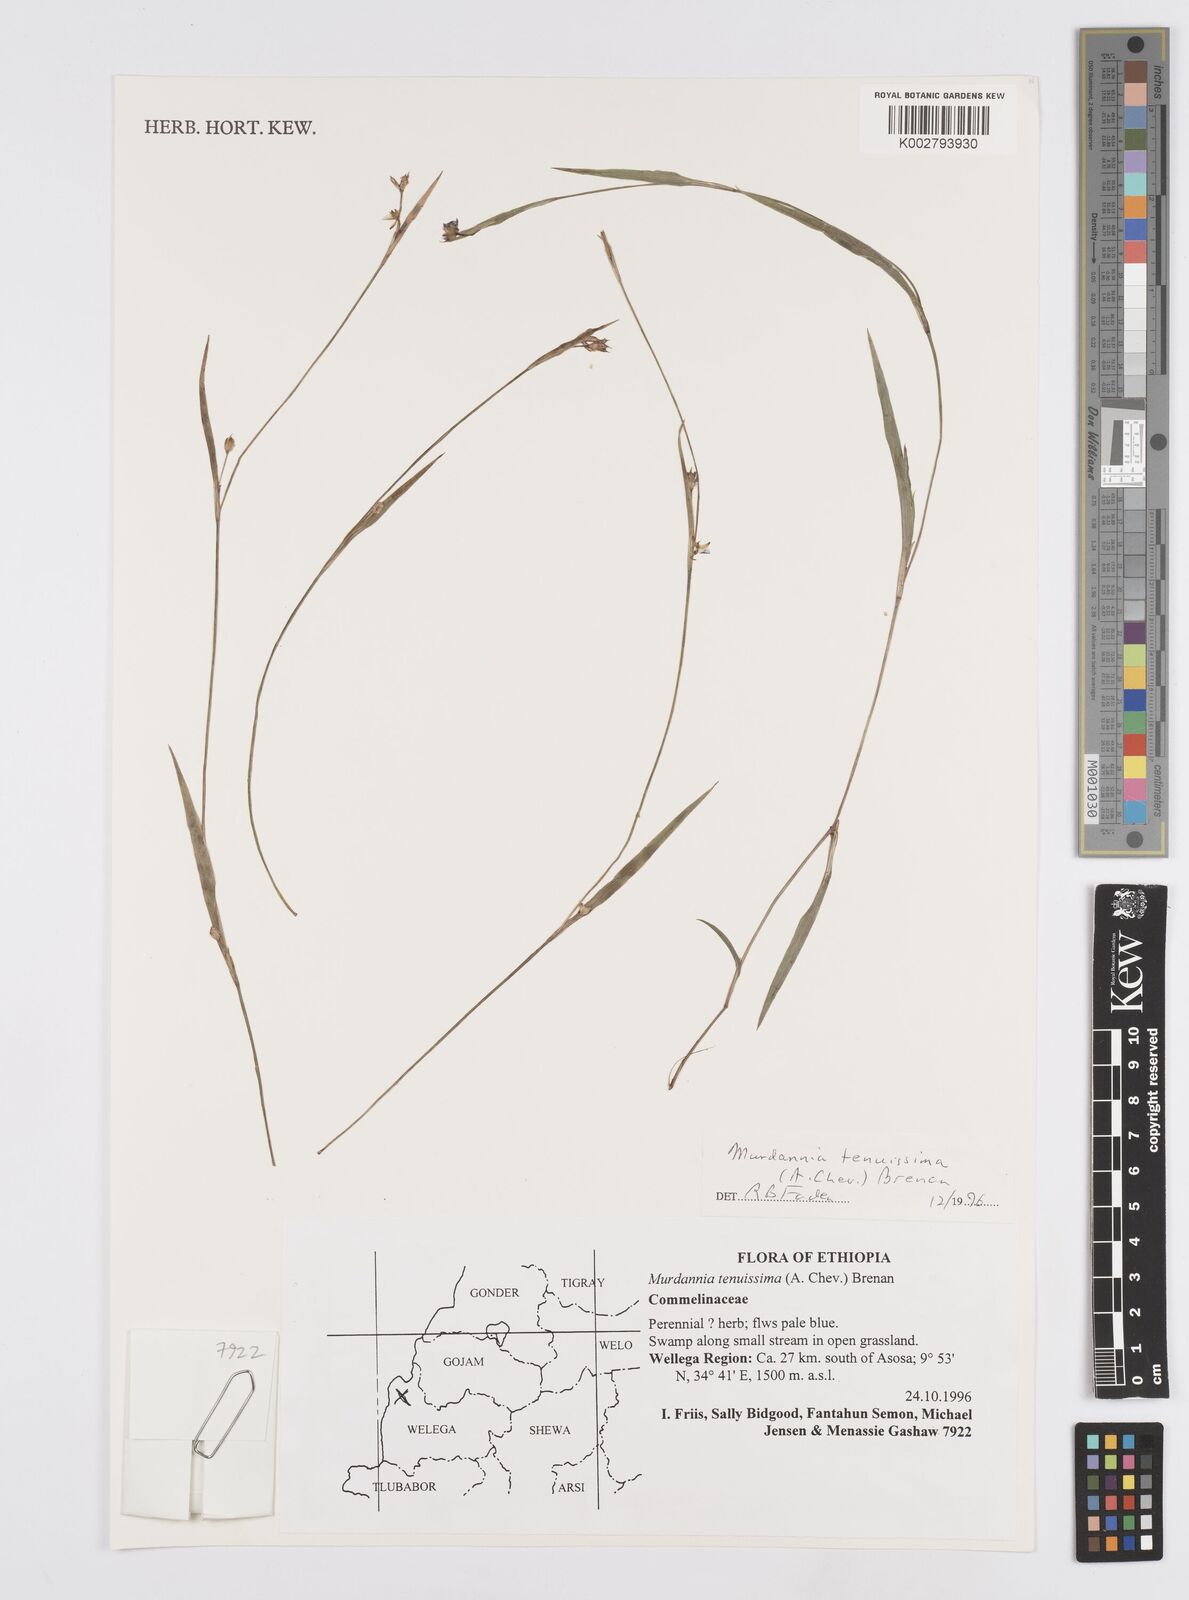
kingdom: Plantae
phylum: Tracheophyta
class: Liliopsida
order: Commelinales
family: Commelinaceae
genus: Murdannia
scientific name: Murdannia tenuissima
